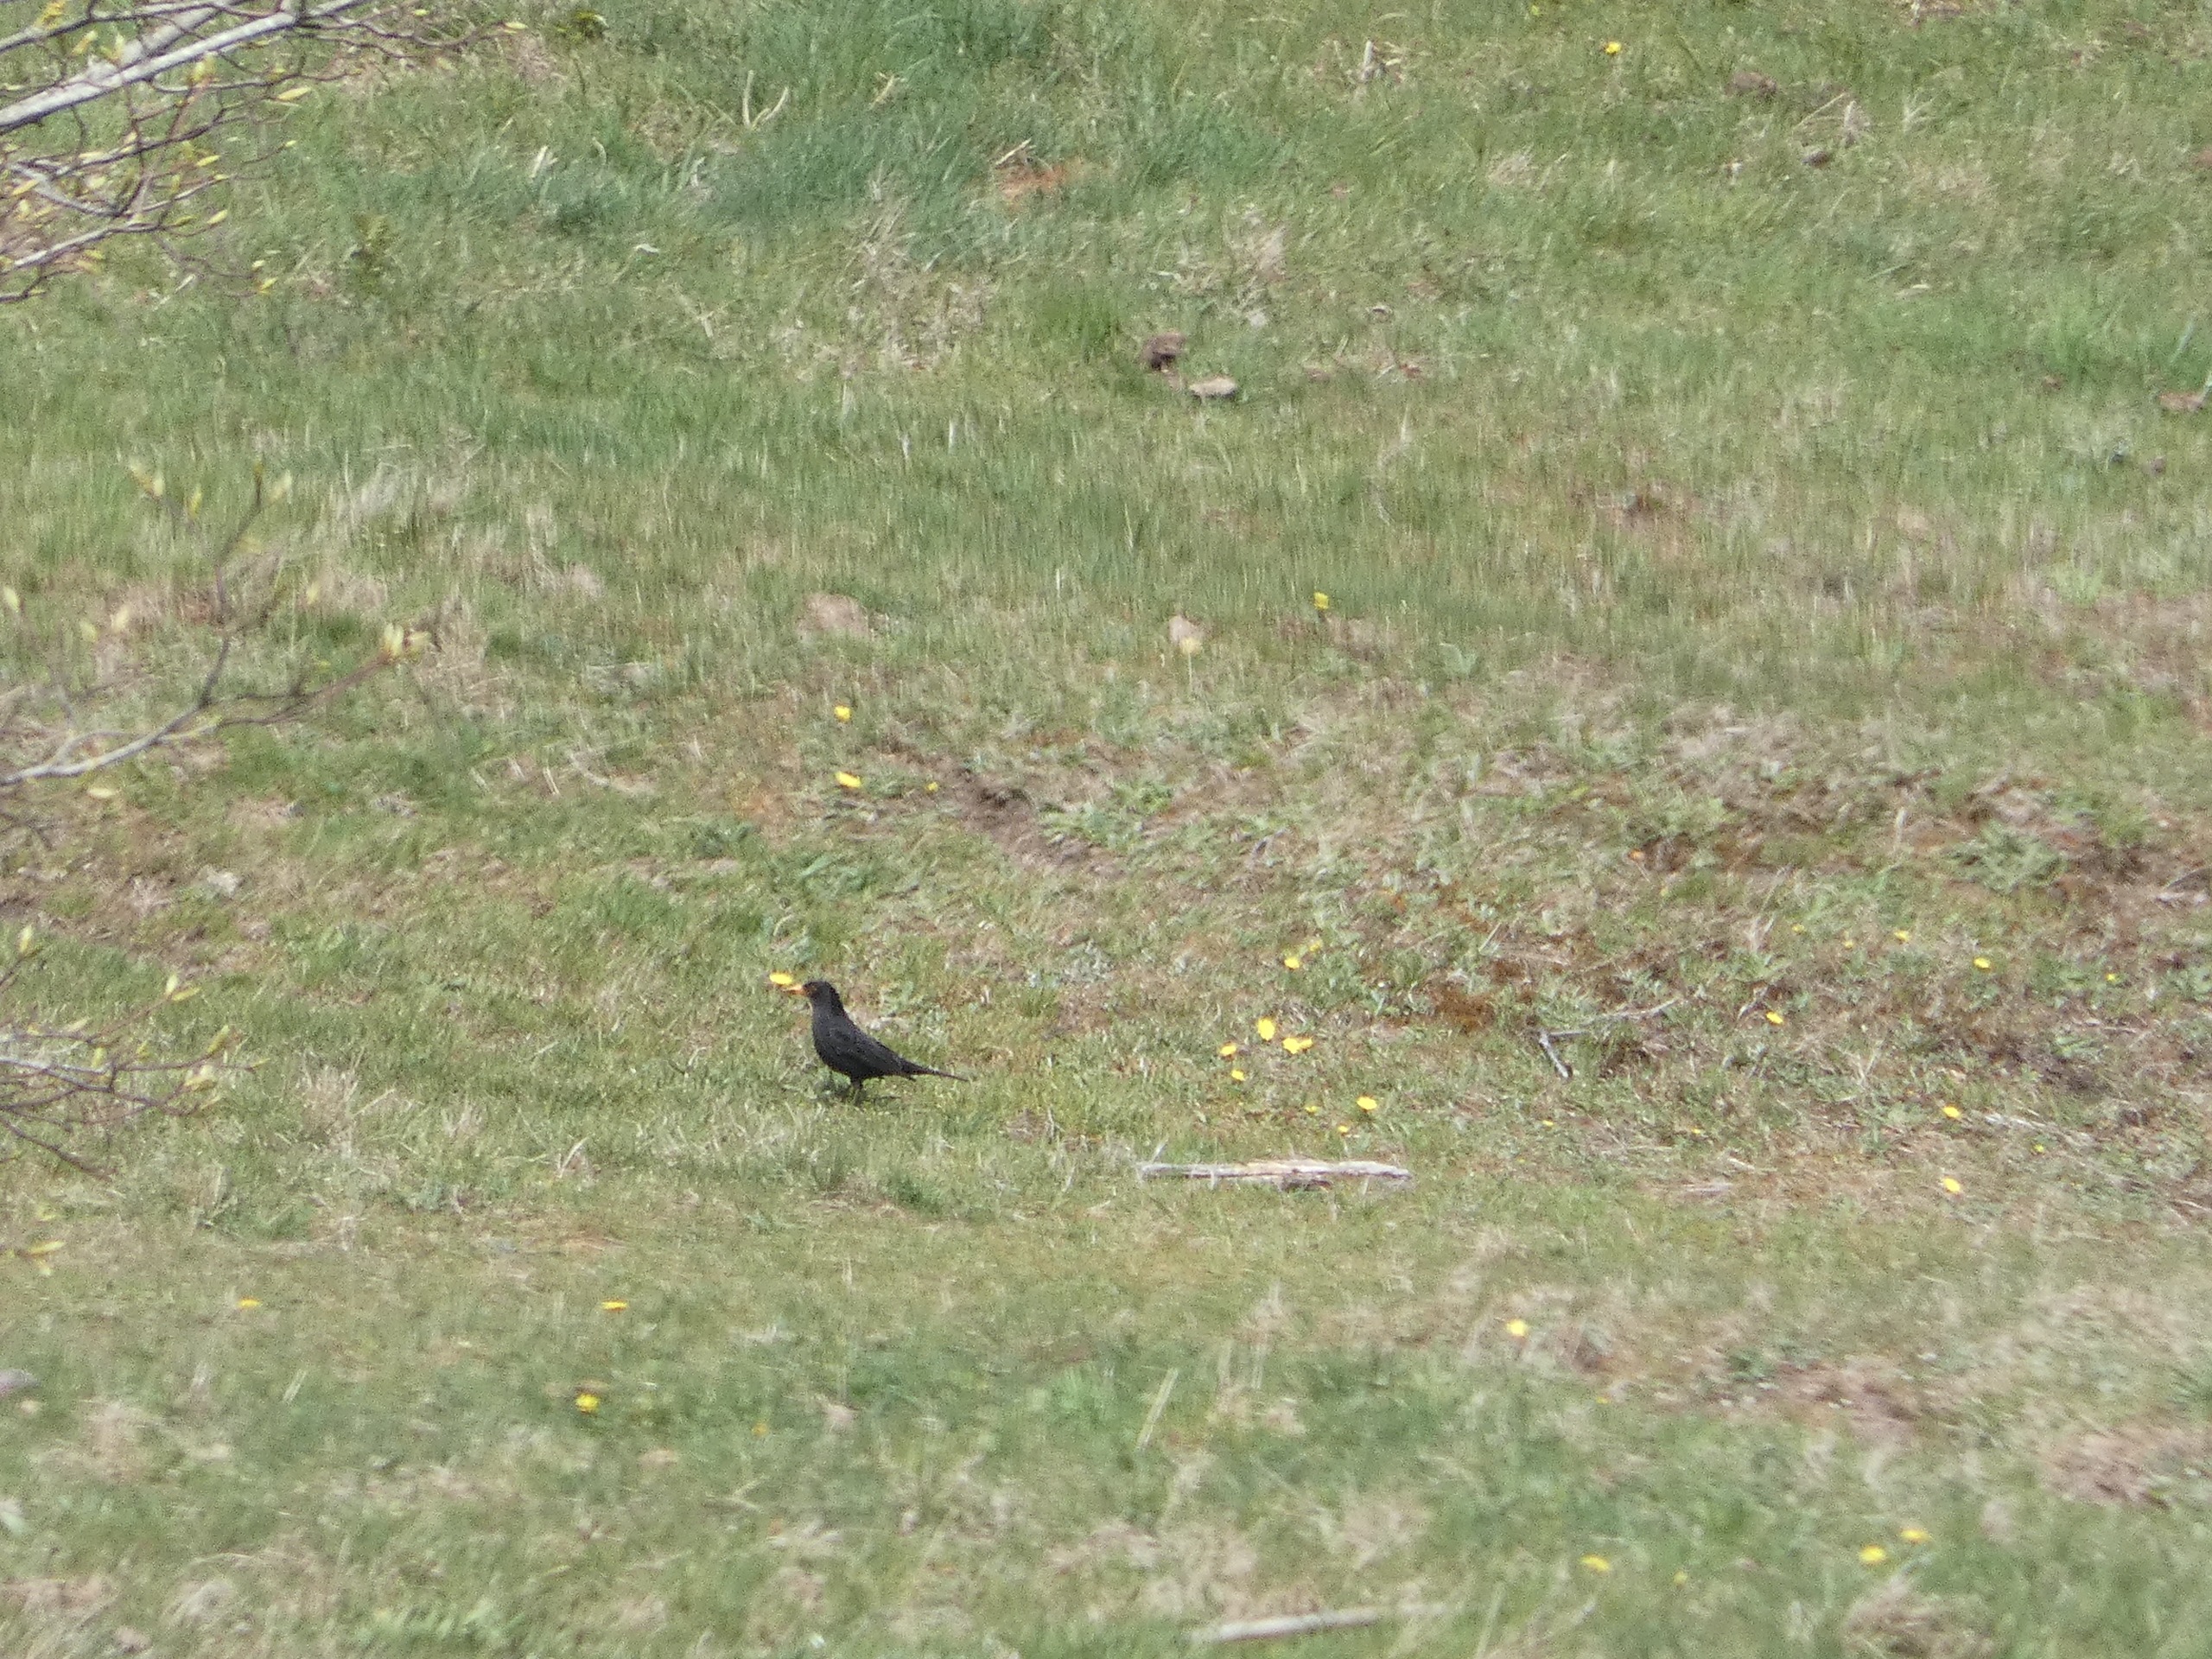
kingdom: Animalia
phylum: Chordata
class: Aves
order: Passeriformes
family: Turdidae
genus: Turdus
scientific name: Turdus merula
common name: Solsort
